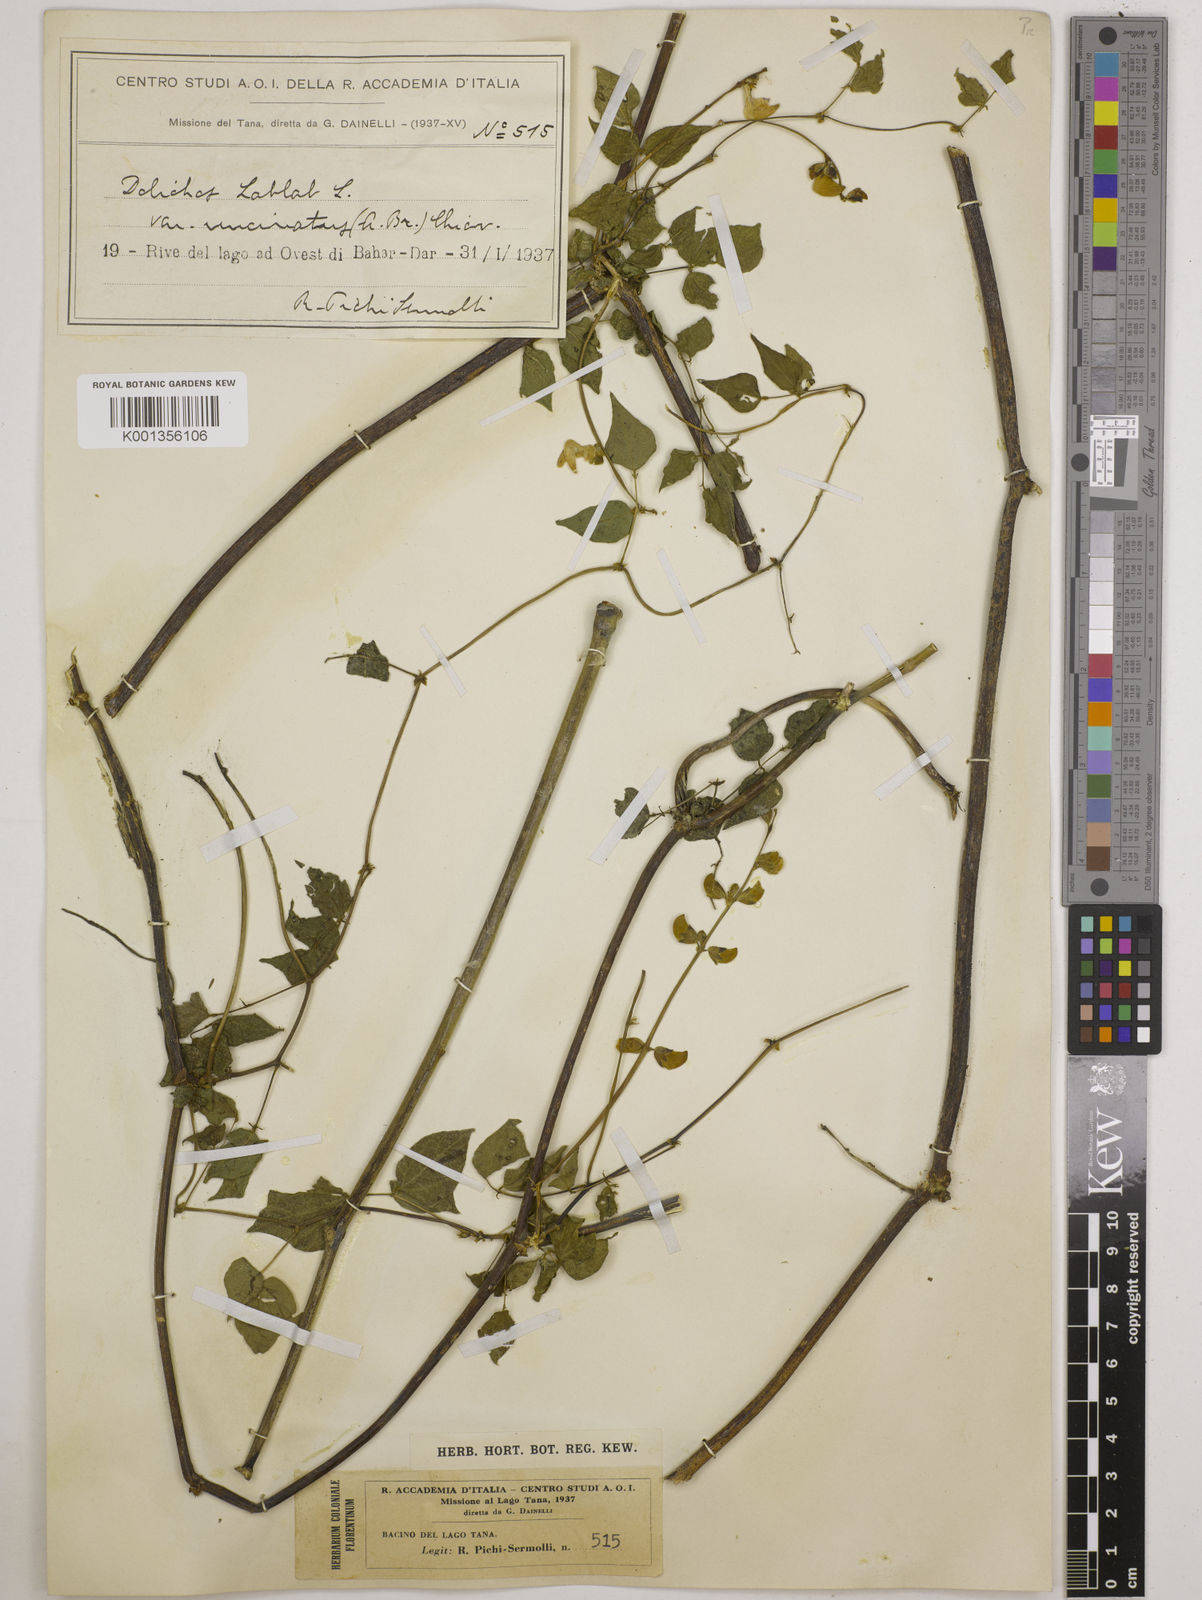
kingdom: Plantae
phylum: Tracheophyta
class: Magnoliopsida
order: Fabales
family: Fabaceae
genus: Lablab
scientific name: Lablab purpureus
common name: Lablab-bean
